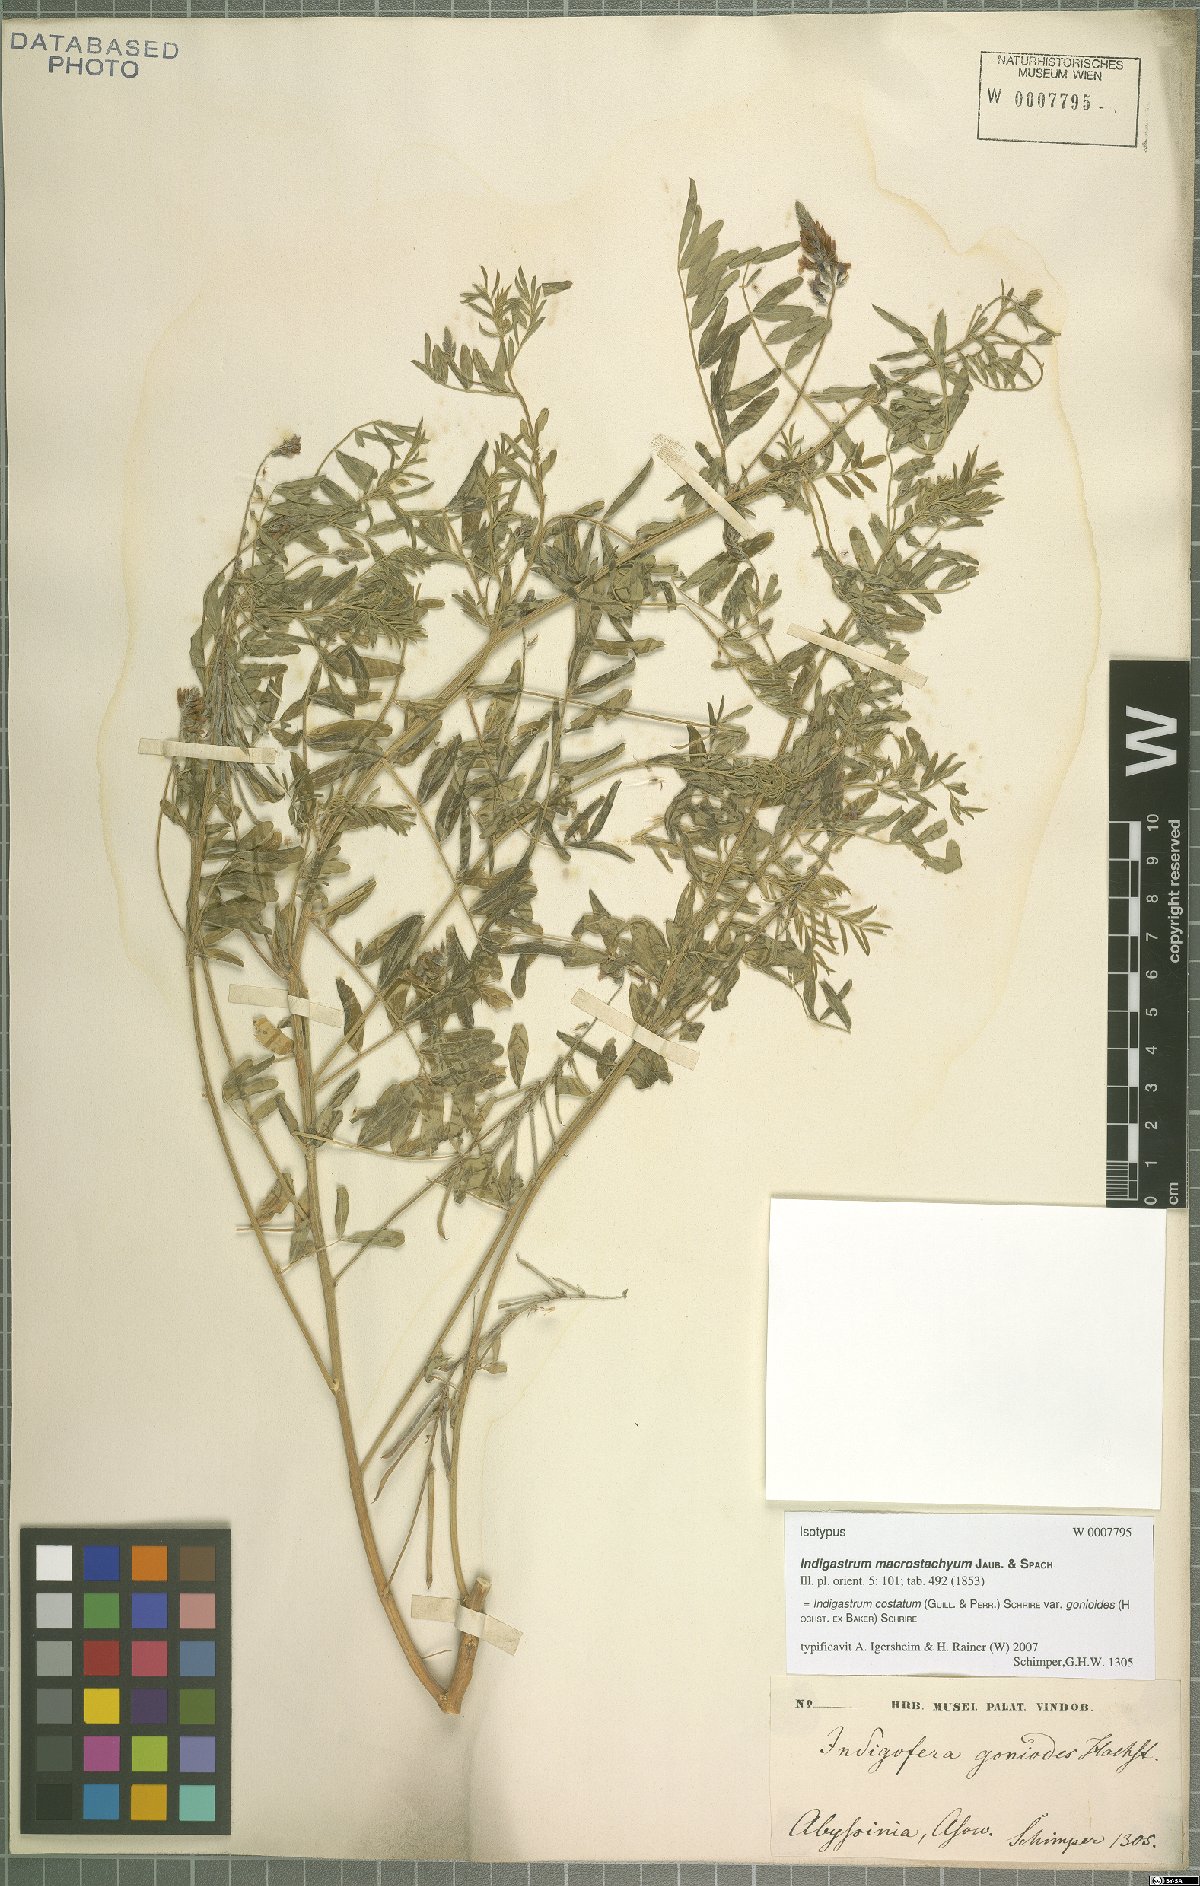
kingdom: Plantae
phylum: Tracheophyta
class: Magnoliopsida
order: Fabales
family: Fabaceae
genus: Indigastrum
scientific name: Indigastrum costatum
